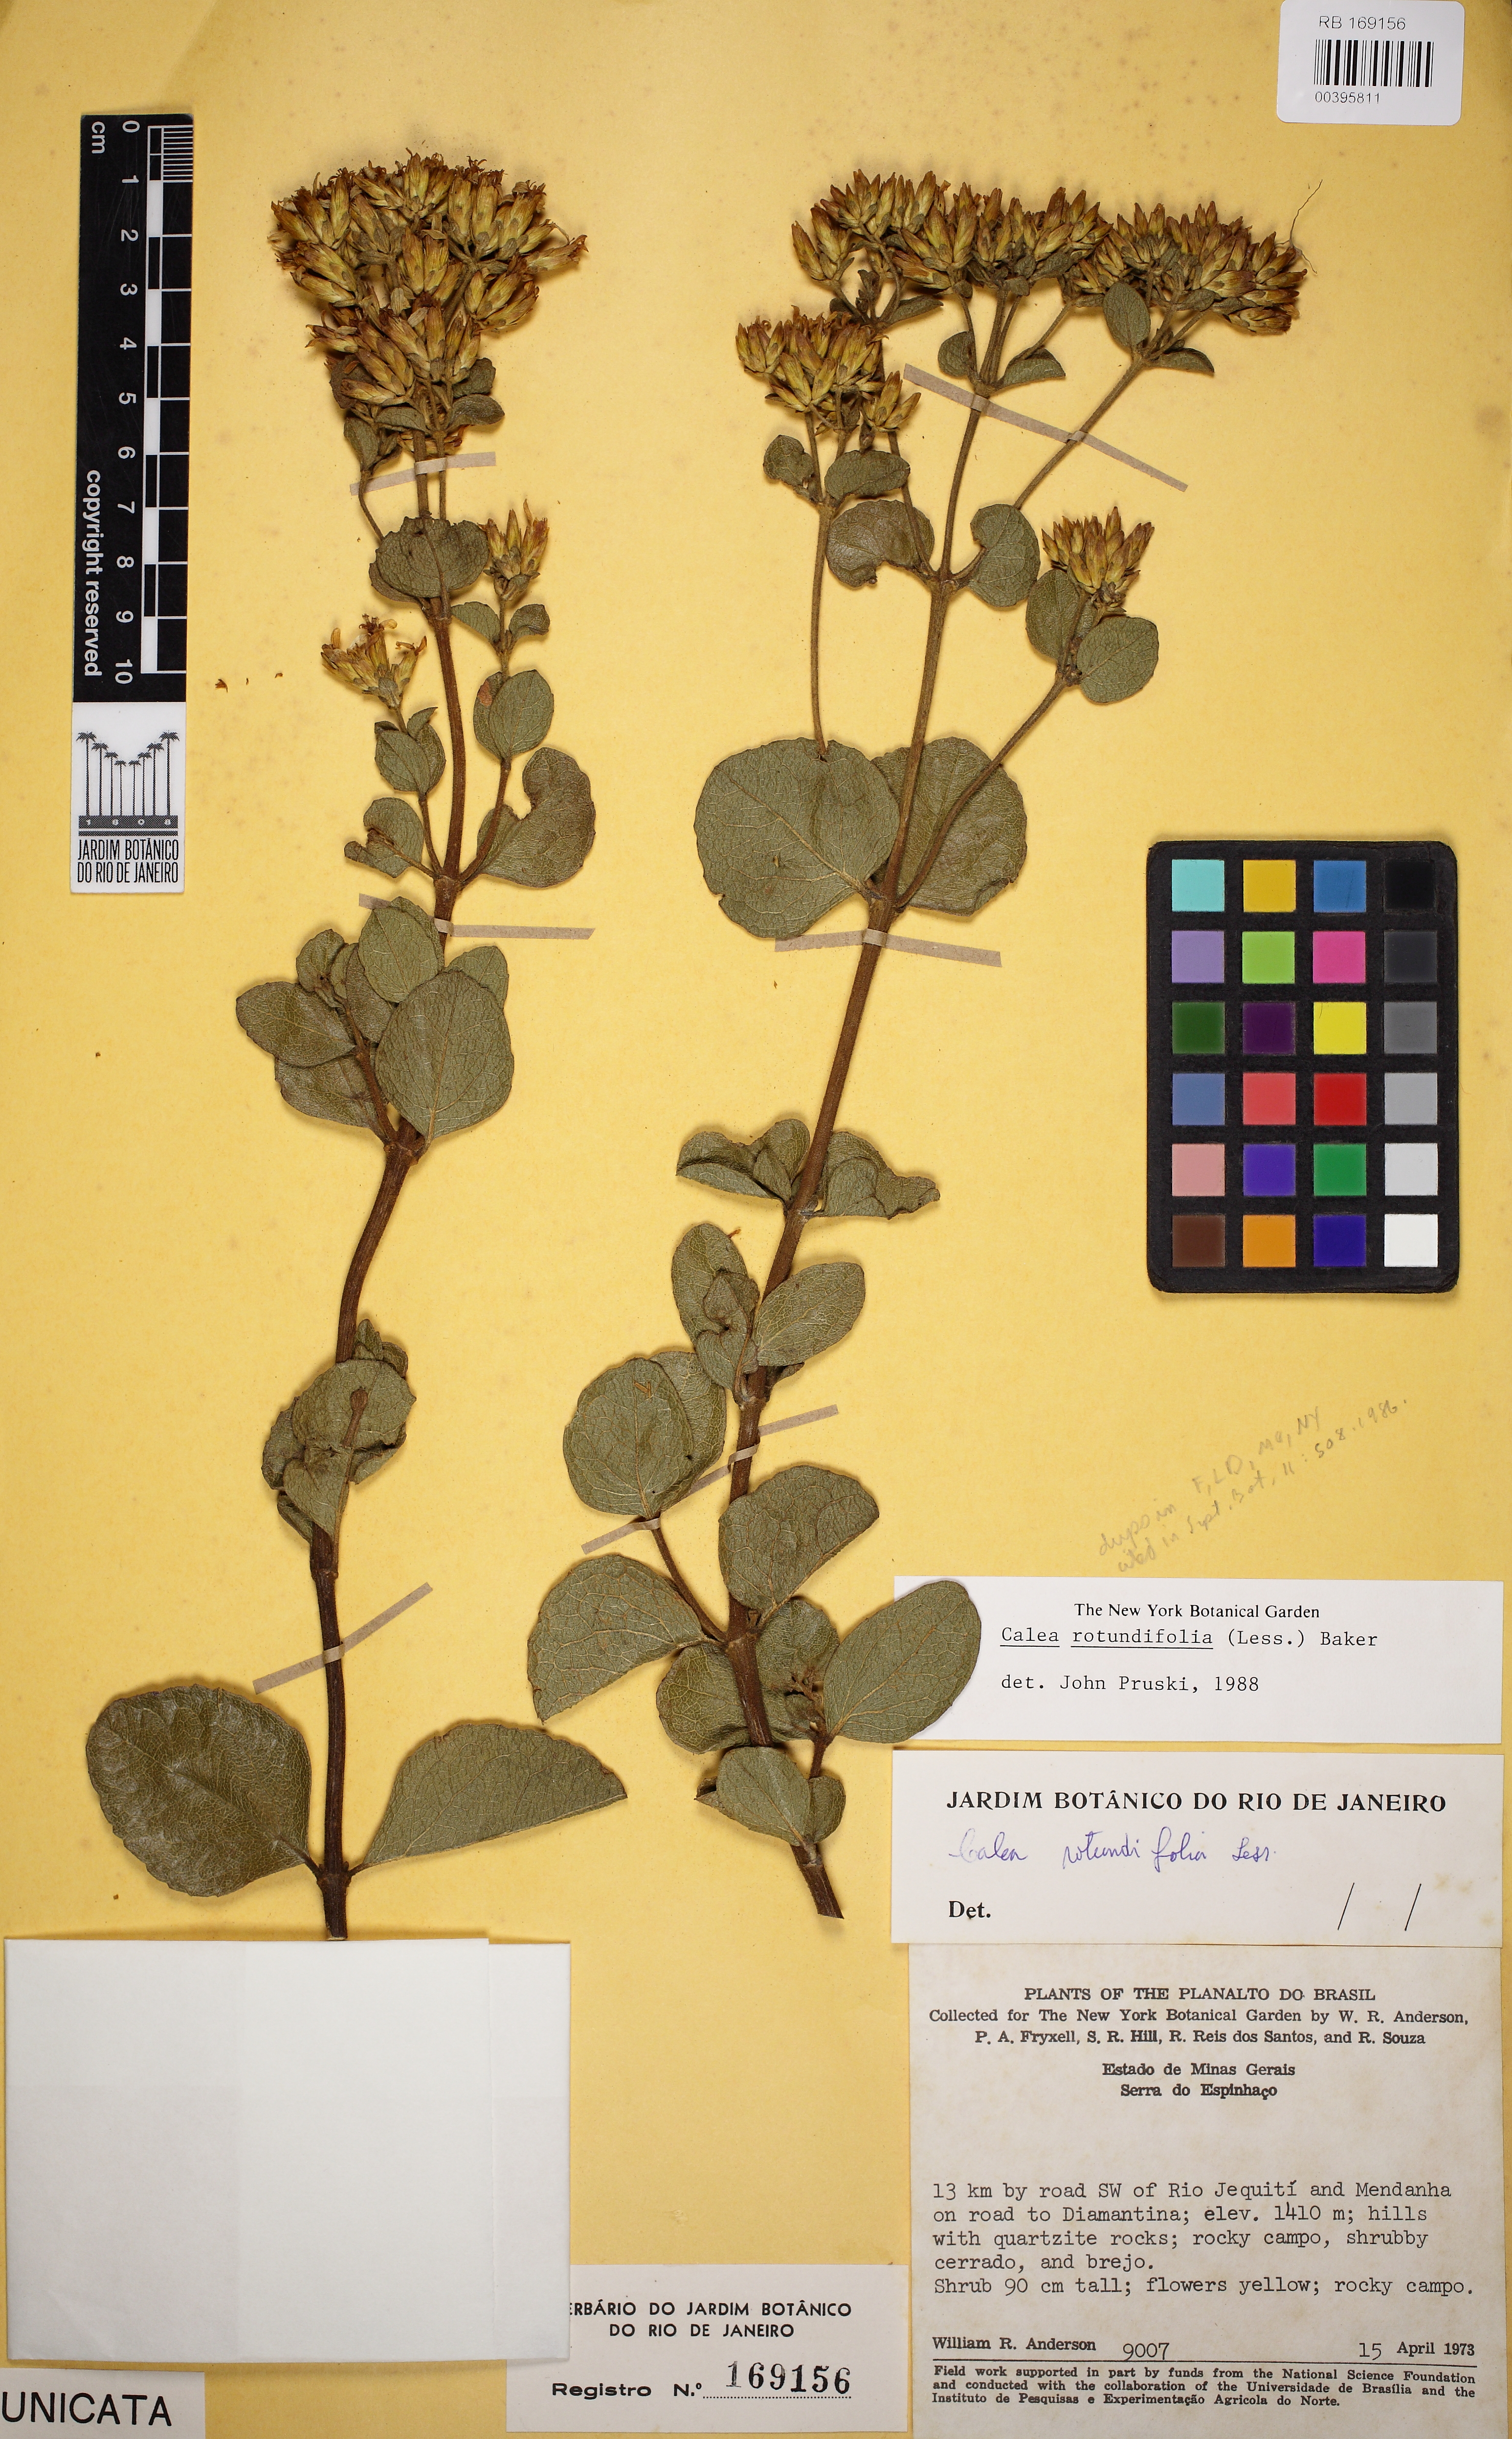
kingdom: Plantae
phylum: Tracheophyta
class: Magnoliopsida
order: Asterales
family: Asteraceae
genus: Calea
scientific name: Calea rotundifolia
